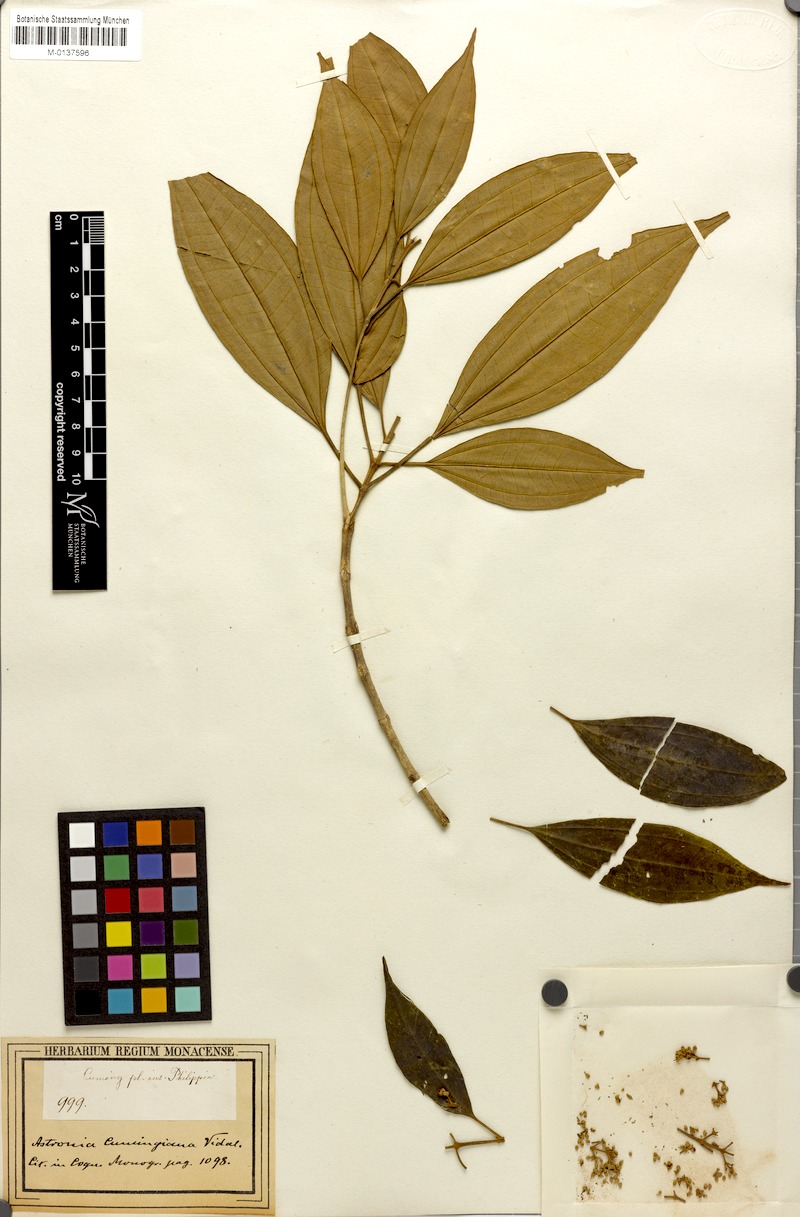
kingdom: Plantae
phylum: Tracheophyta
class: Magnoliopsida
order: Myrtales
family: Melastomataceae
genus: Astronia
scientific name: Astronia cumingiana
